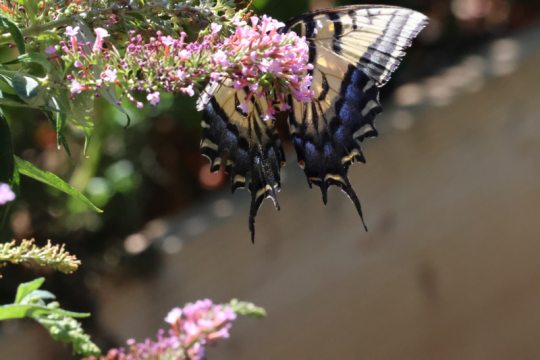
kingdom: Animalia
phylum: Arthropoda
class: Insecta
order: Lepidoptera
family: Papilionidae
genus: Papilio
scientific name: Papilio multicaudata
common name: Two-tailed Swallowtail
